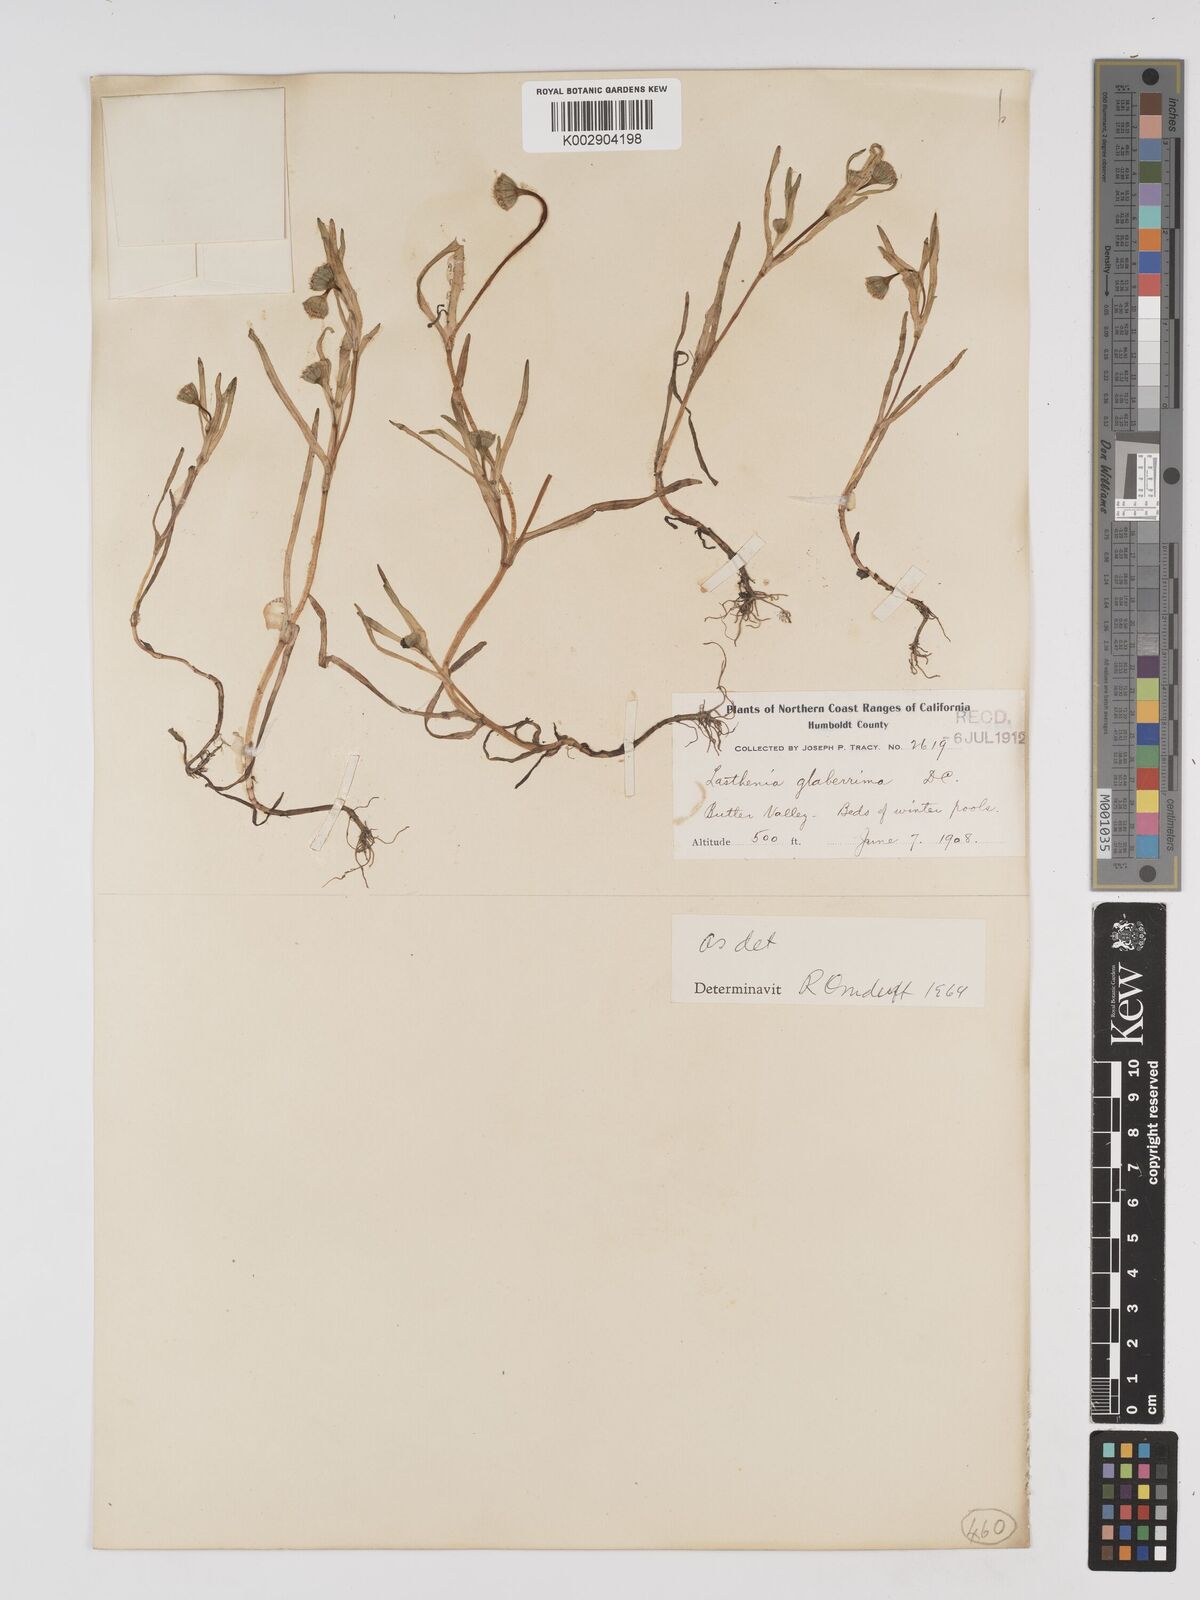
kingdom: Plantae
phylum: Tracheophyta
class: Magnoliopsida
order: Asterales
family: Asteraceae
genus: Lasthenia
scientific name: Lasthenia glaberrima
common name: Smooth goldfields
